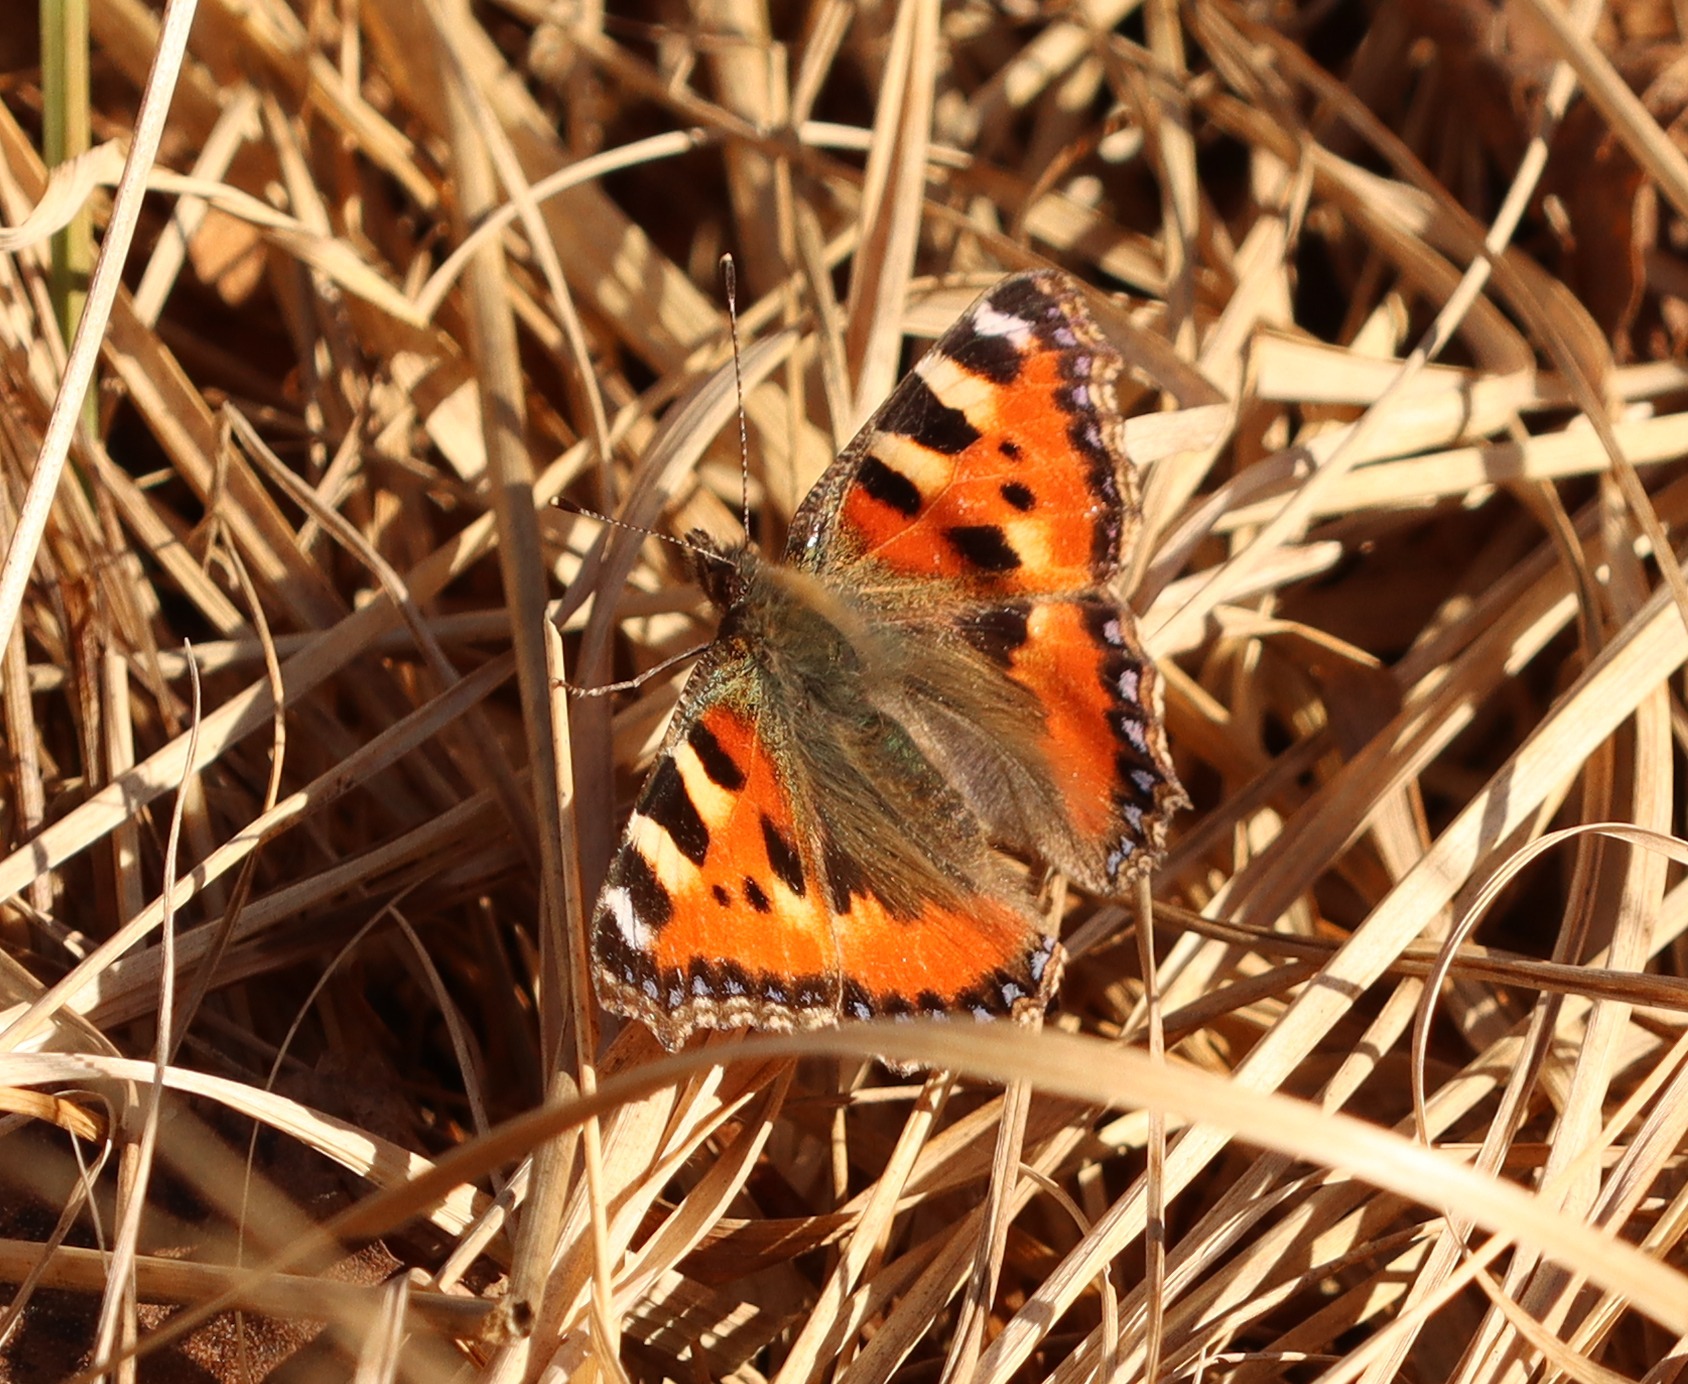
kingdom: Animalia
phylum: Arthropoda
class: Insecta
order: Lepidoptera
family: Nymphalidae
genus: Aglais
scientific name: Aglais urticae
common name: Nældens takvinge
